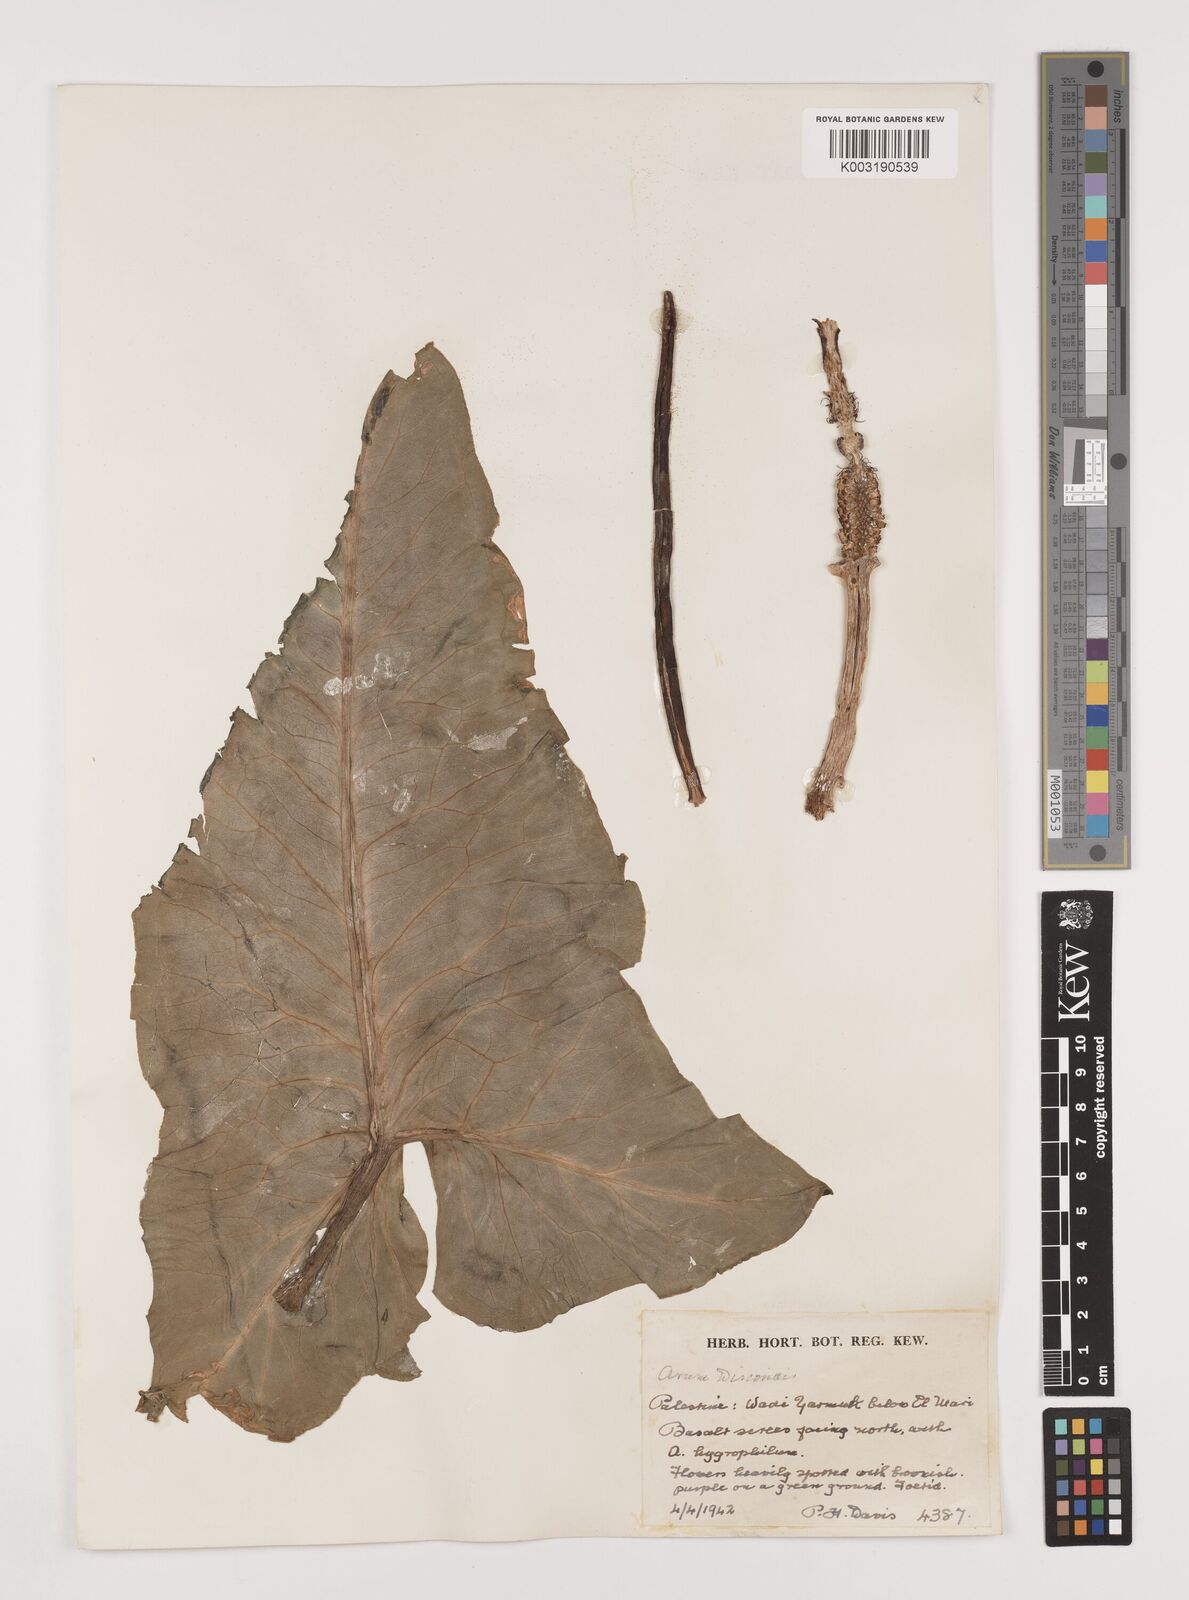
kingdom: Plantae
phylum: Tracheophyta
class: Liliopsida
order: Alismatales
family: Araceae
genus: Arum
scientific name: Arum dioscoridis
